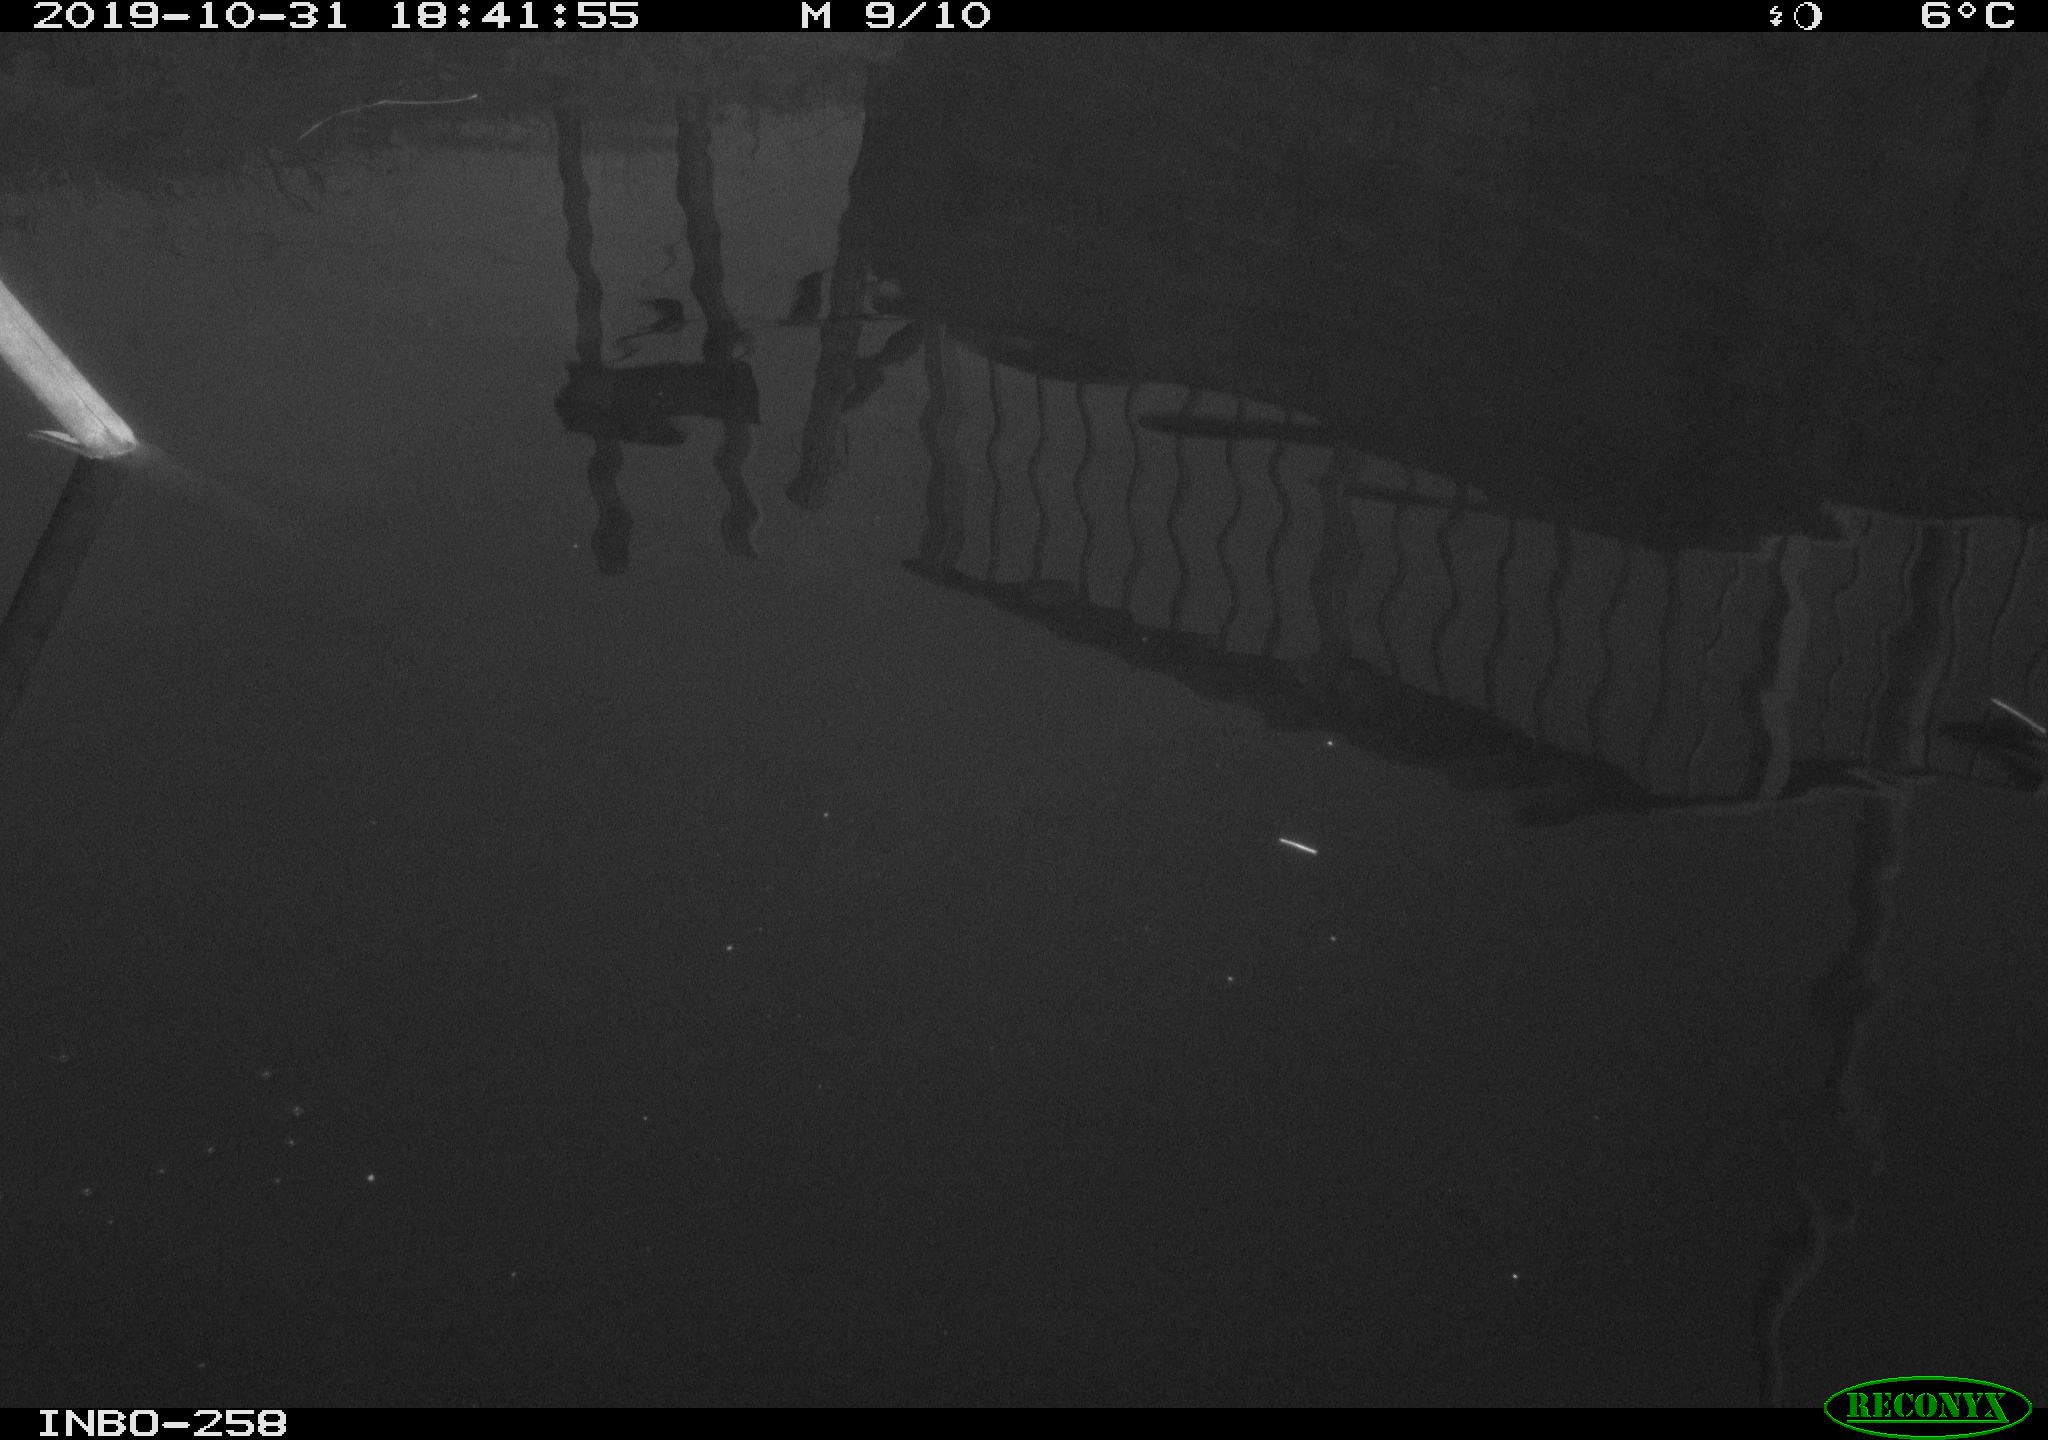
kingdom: Animalia
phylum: Chordata
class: Aves
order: Gruiformes
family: Rallidae
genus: Gallinula
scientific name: Gallinula chloropus
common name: Common moorhen
